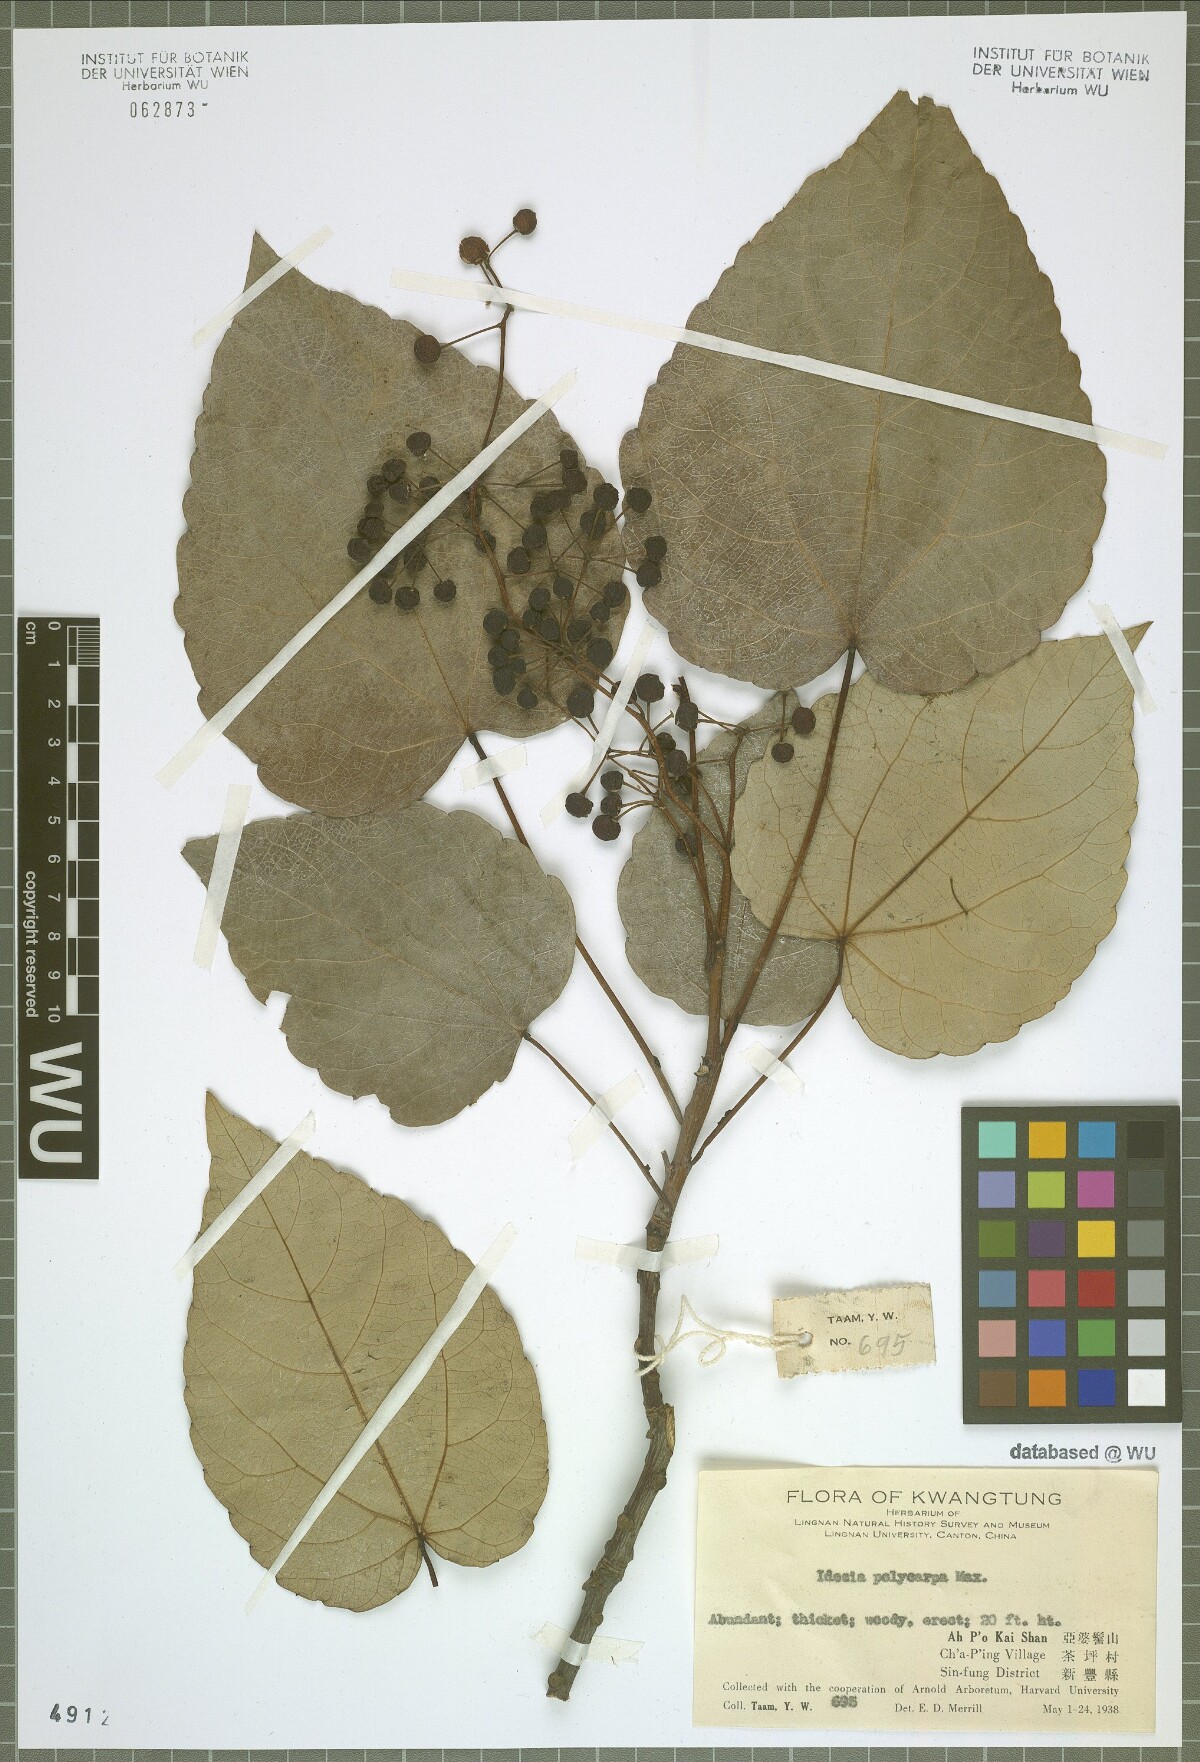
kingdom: Plantae
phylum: Tracheophyta
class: Magnoliopsida
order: Malpighiales
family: Salicaceae
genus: Idesia
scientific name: Idesia polycarpa
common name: Idesia tree
